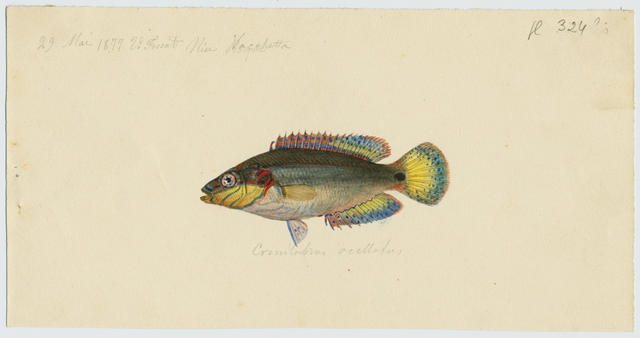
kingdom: Animalia
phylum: Chordata
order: Perciformes
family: Labridae
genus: Symphodus
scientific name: Symphodus ocellatus
